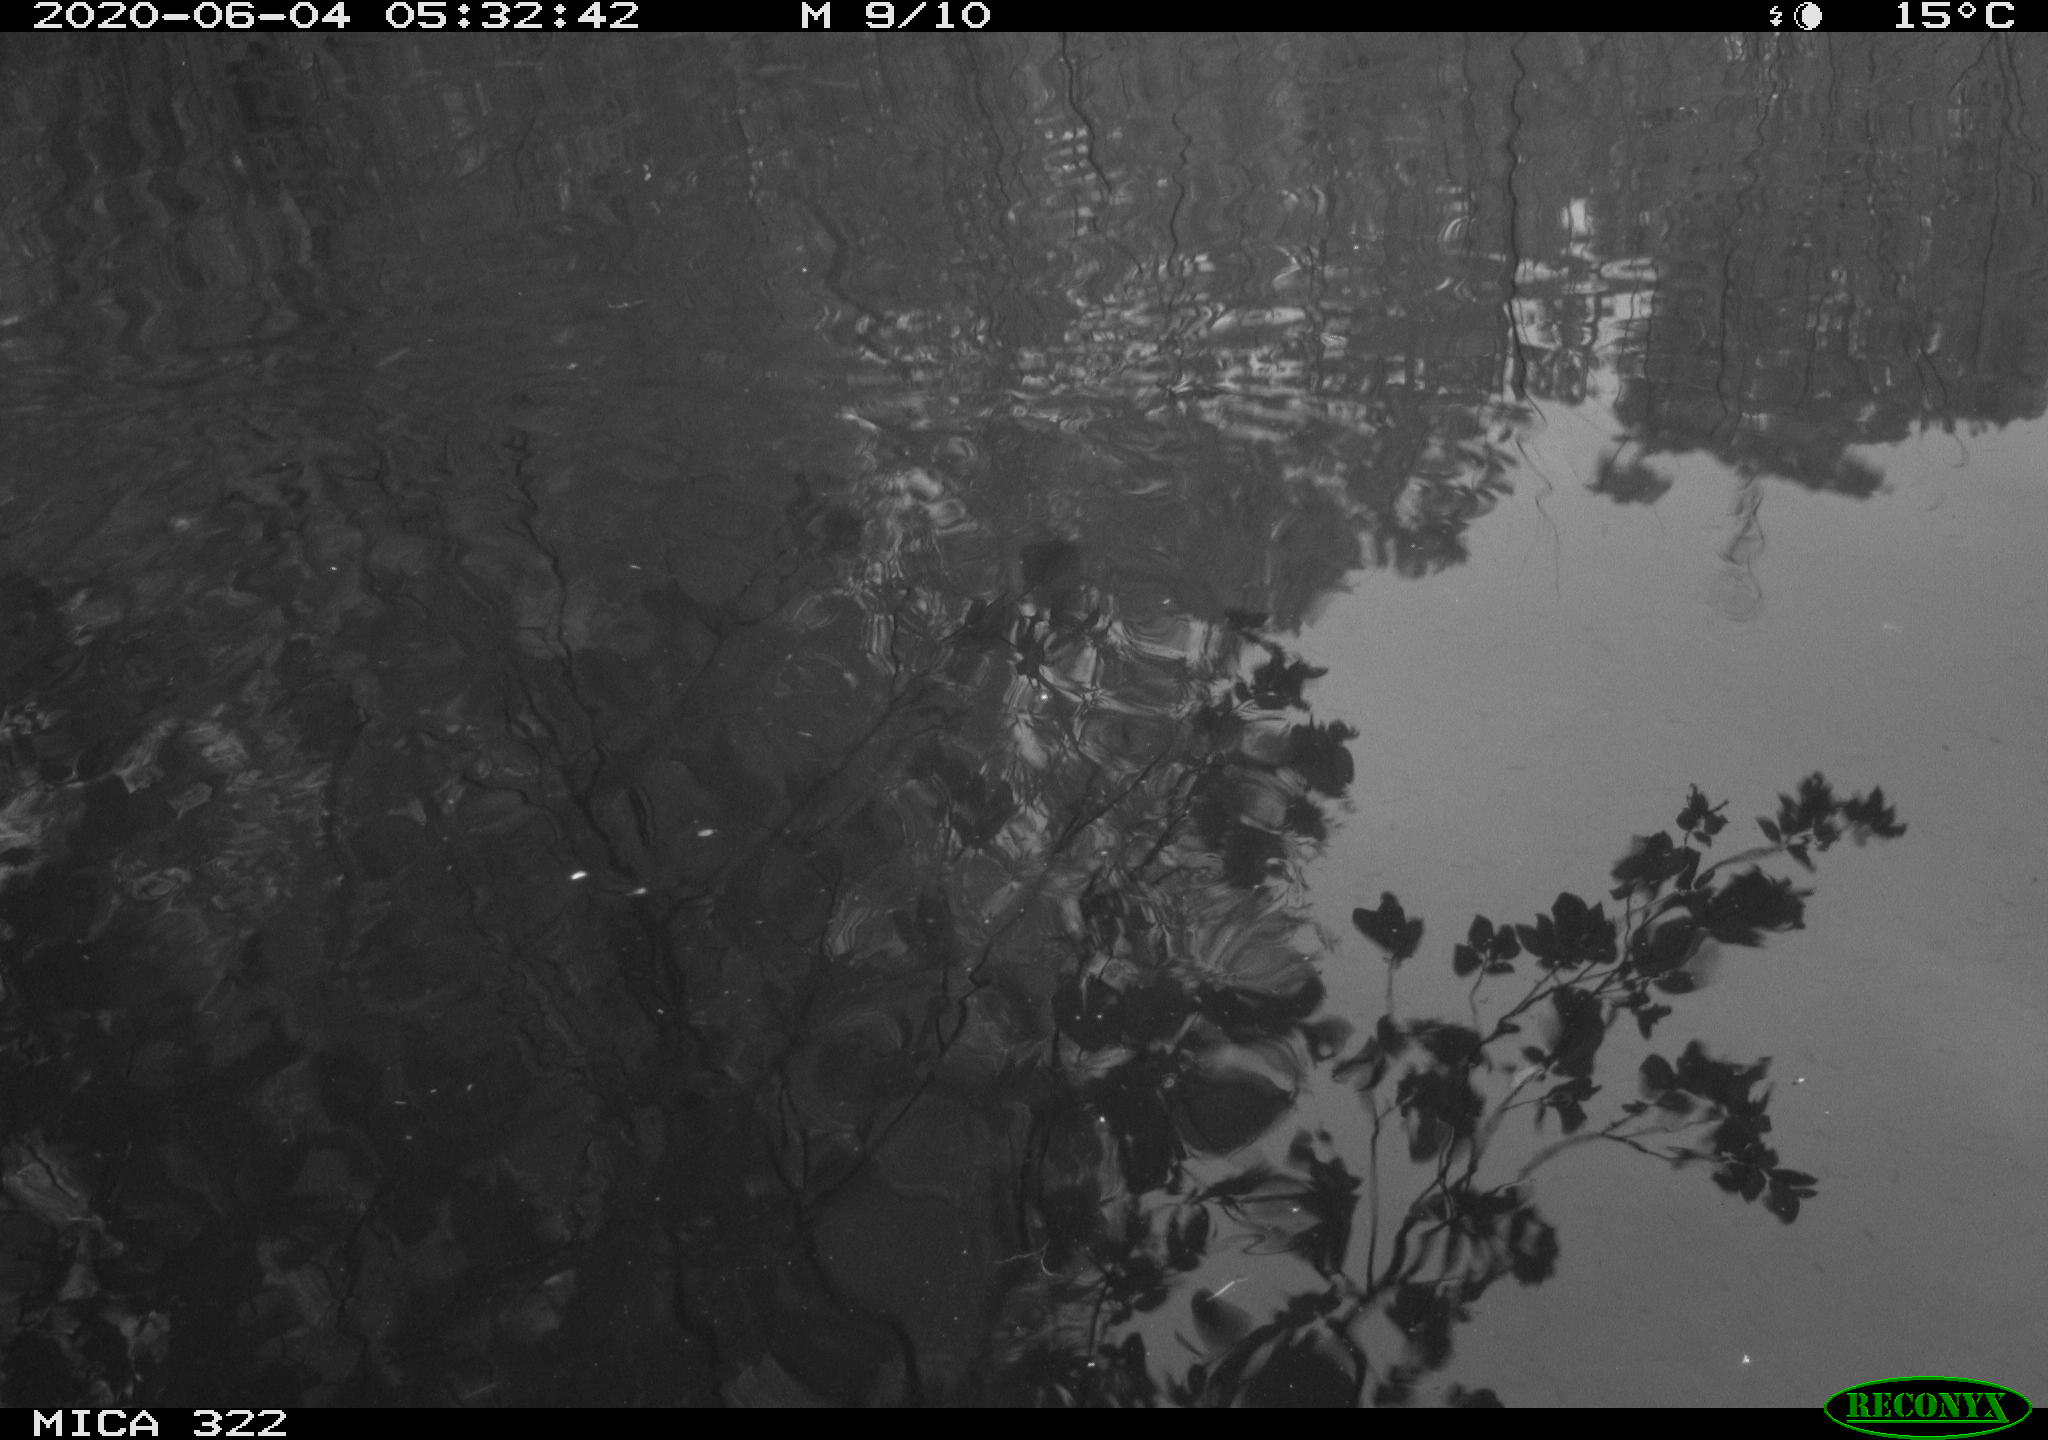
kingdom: Animalia
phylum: Chordata
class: Aves
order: Anseriformes
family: Anatidae
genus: Anas
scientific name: Anas platyrhynchos
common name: Mallard
